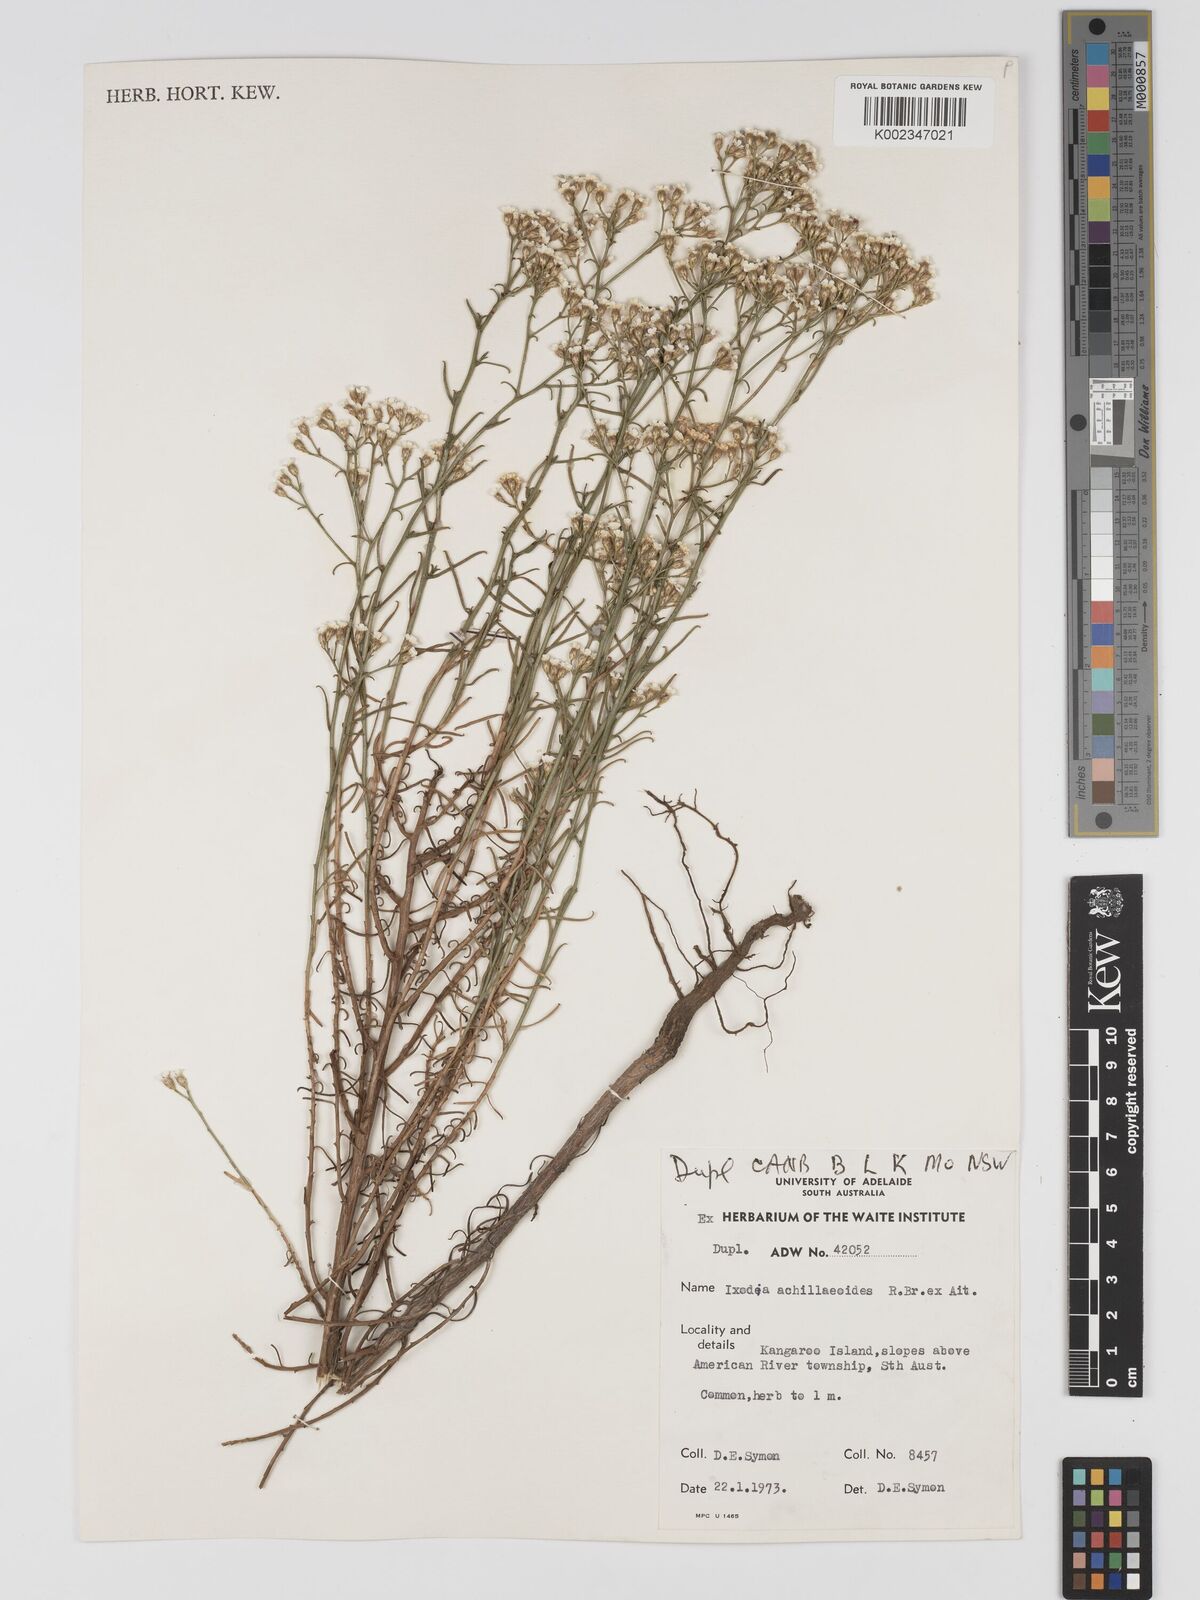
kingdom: Plantae
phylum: Tracheophyta
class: Magnoliopsida
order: Asterales
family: Asteraceae
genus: Ixodia
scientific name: Ixodia achilleoides
